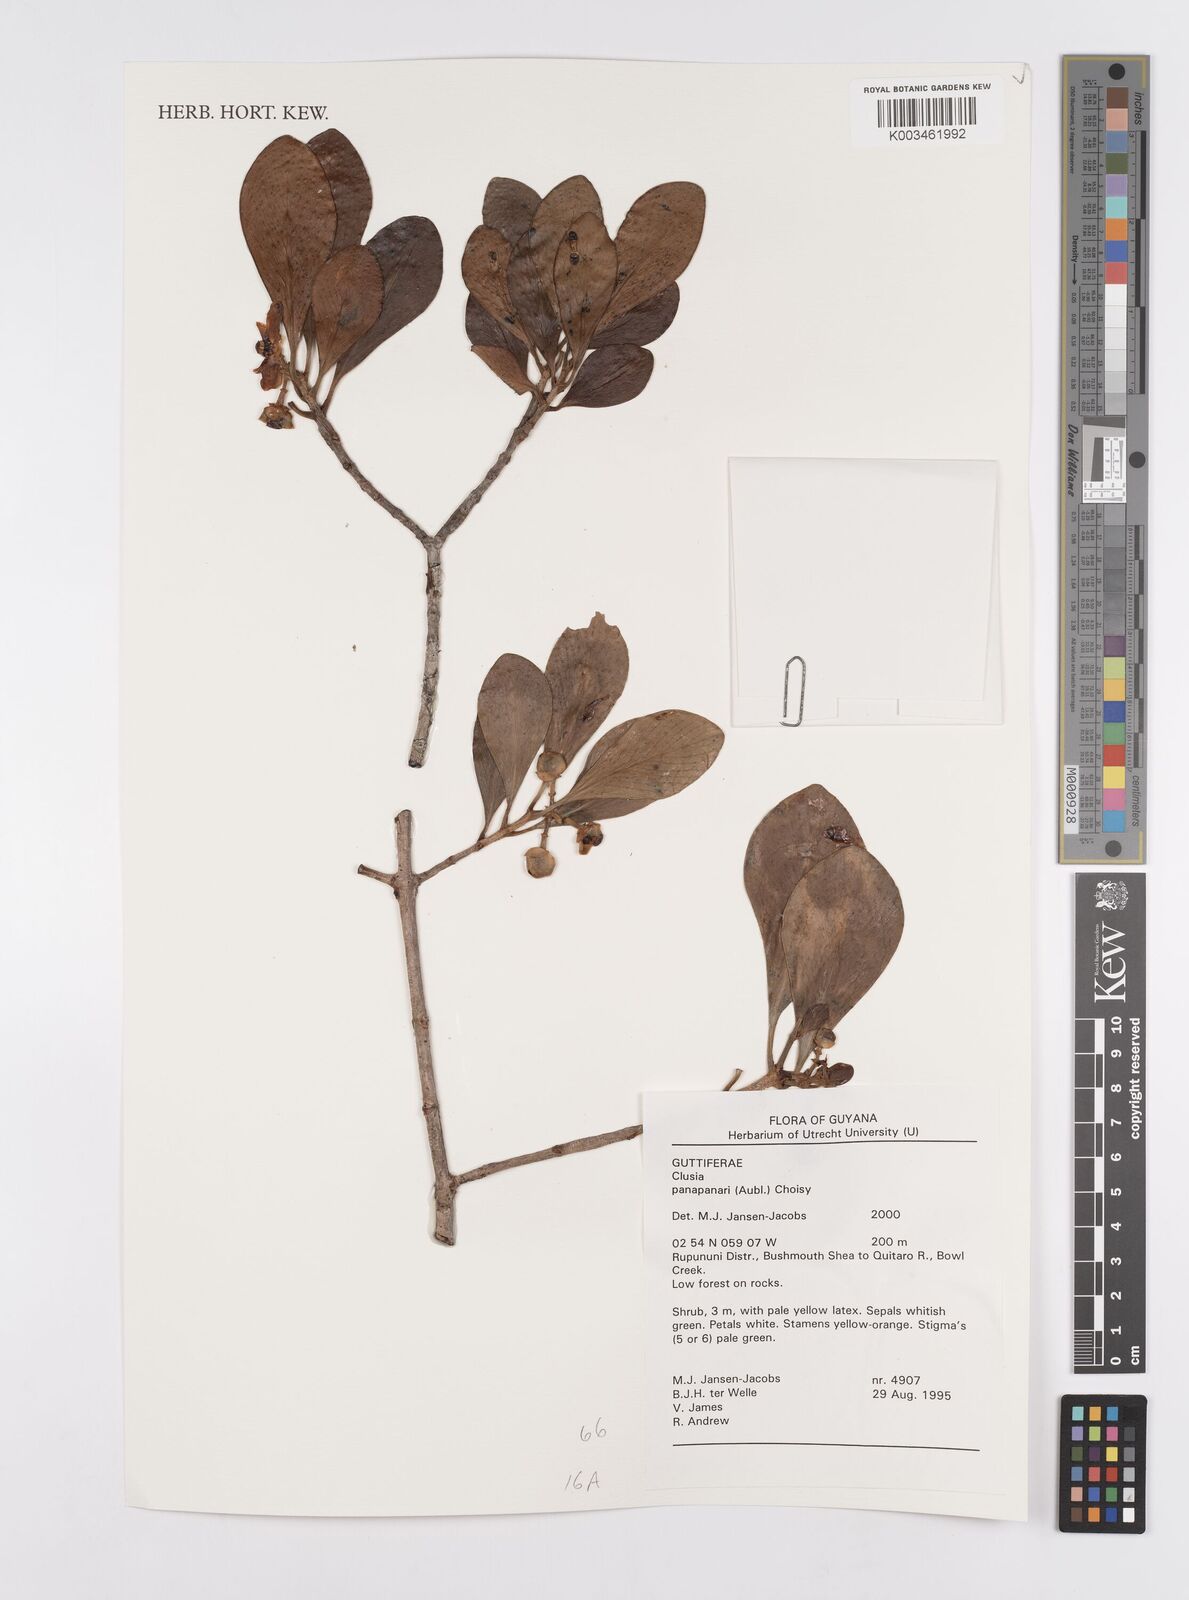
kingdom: Plantae
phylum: Tracheophyta
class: Magnoliopsida
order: Malpighiales
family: Clusiaceae
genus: Clusia
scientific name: Clusia panapanari
